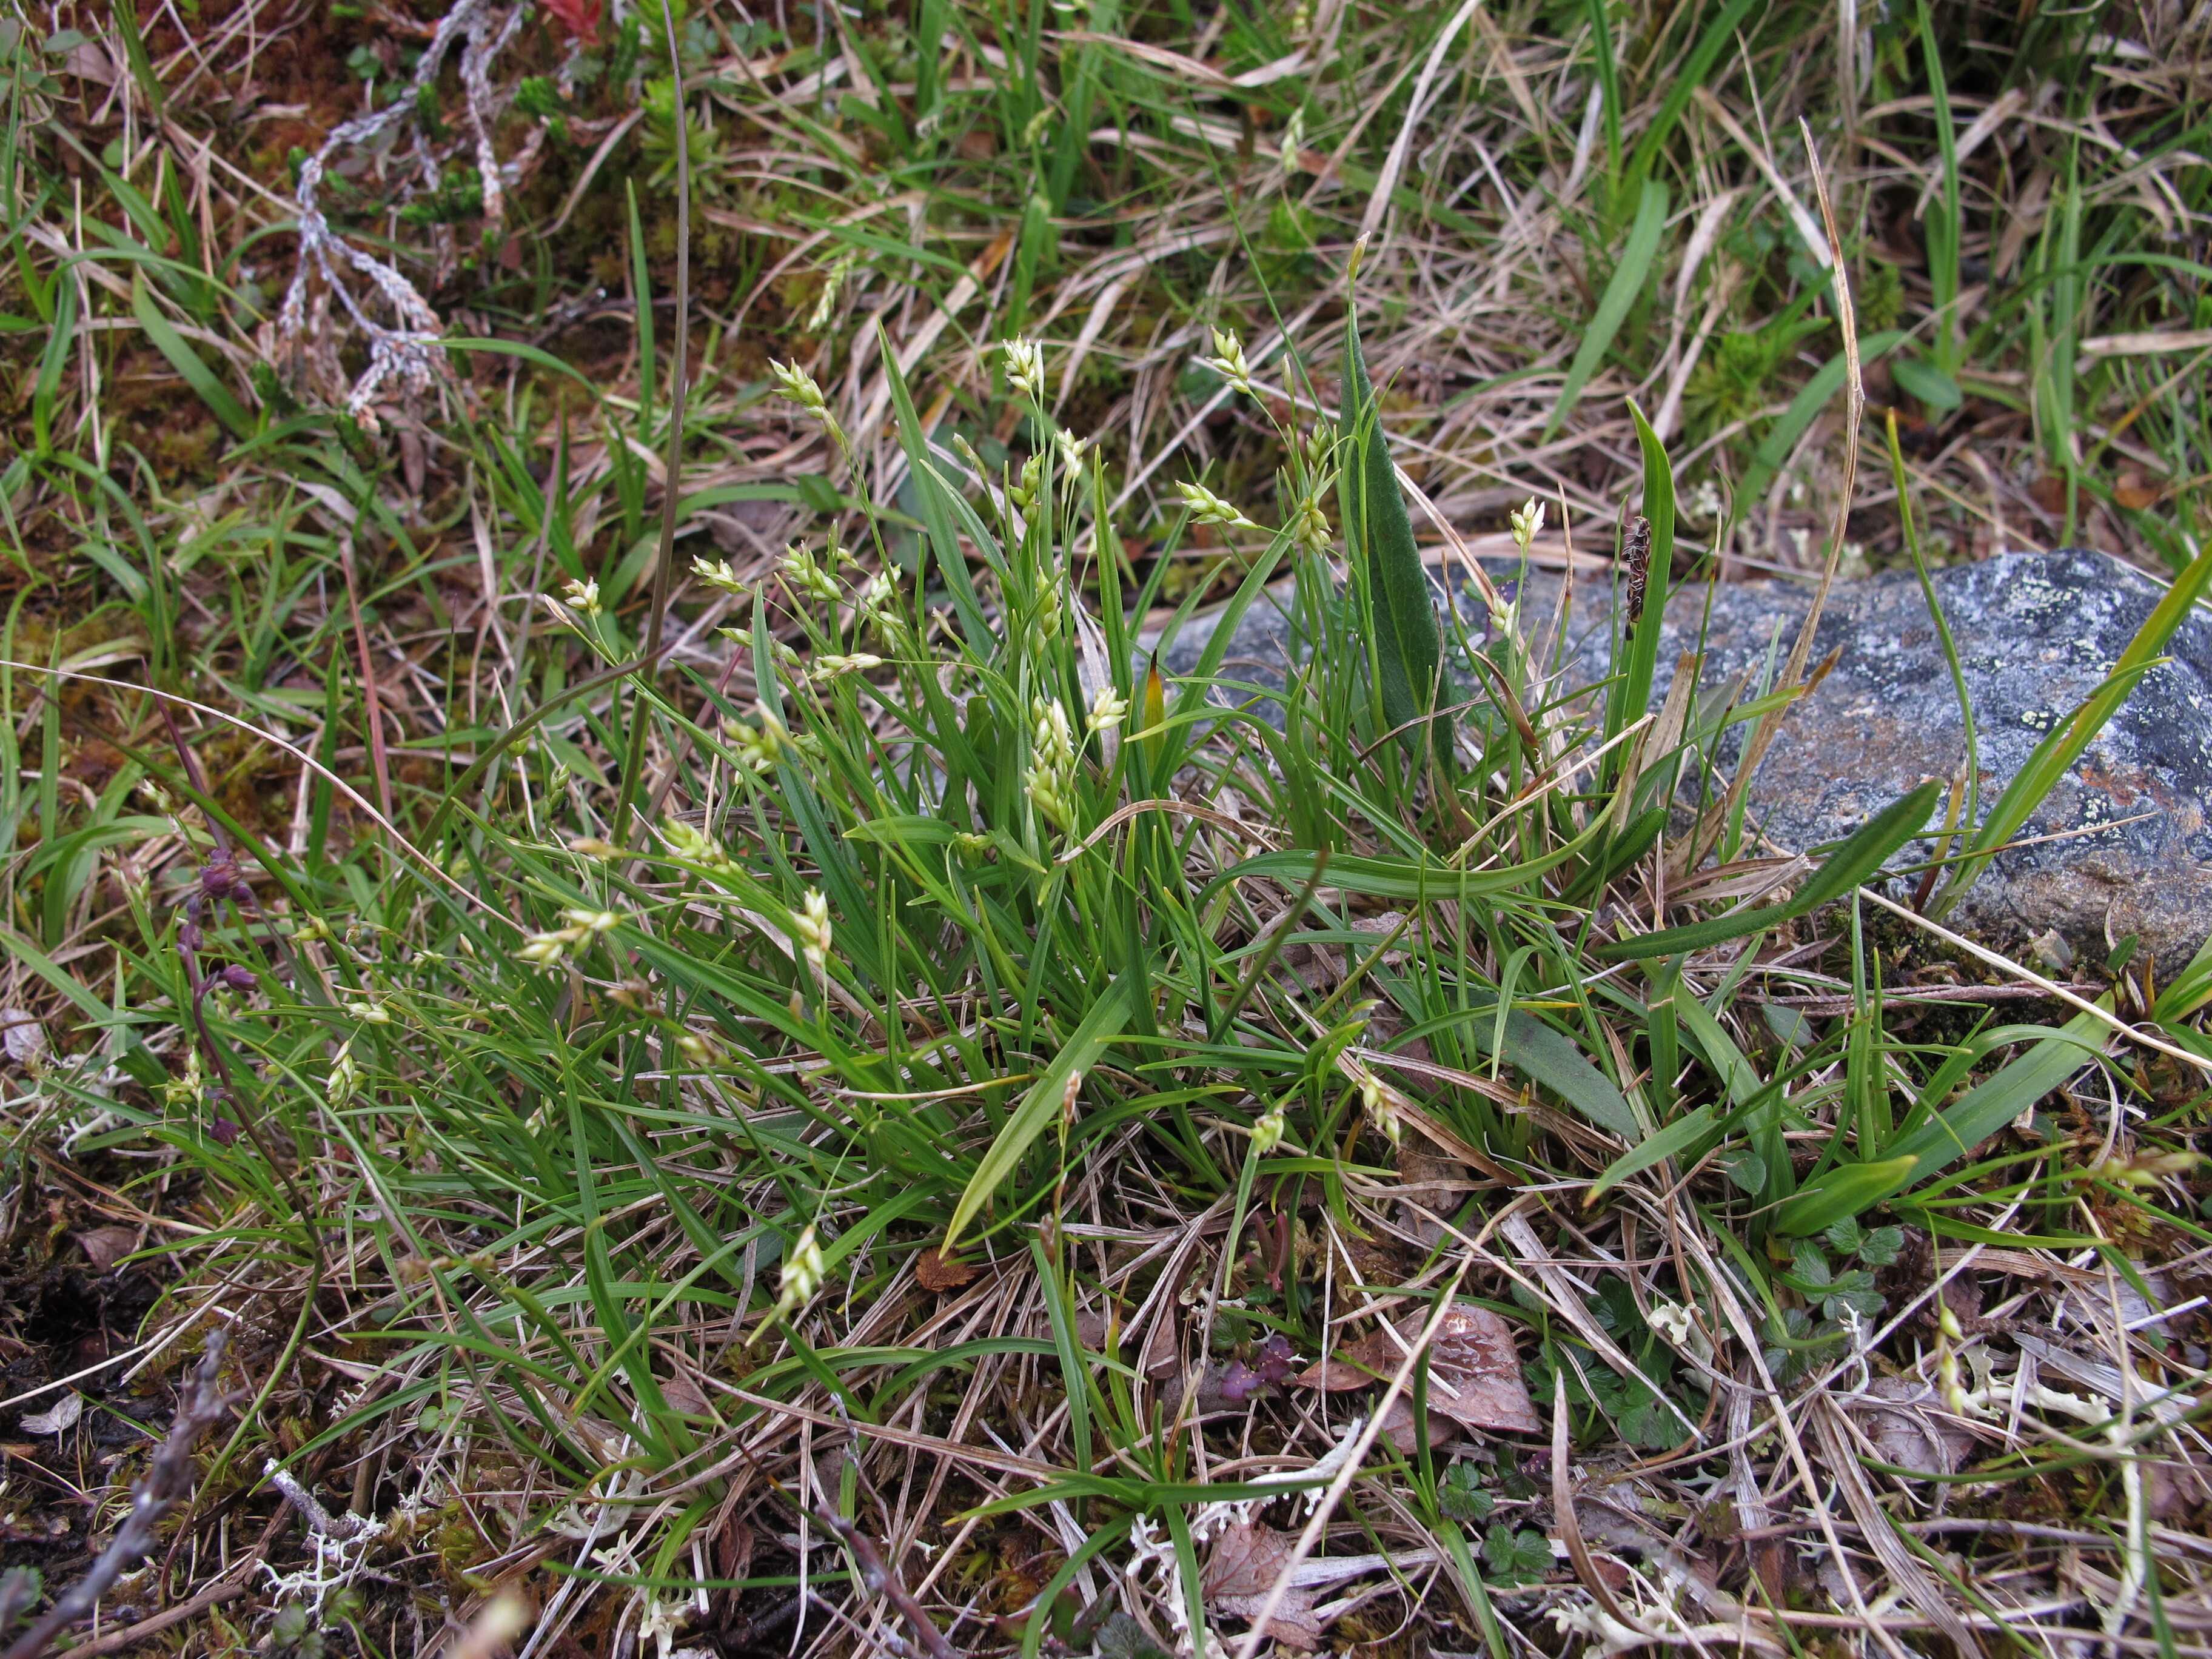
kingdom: Plantae
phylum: Tracheophyta
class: Liliopsida
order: Poales
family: Cyperaceae
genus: Carex
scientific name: Carex capillaris
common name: Hair sedge
